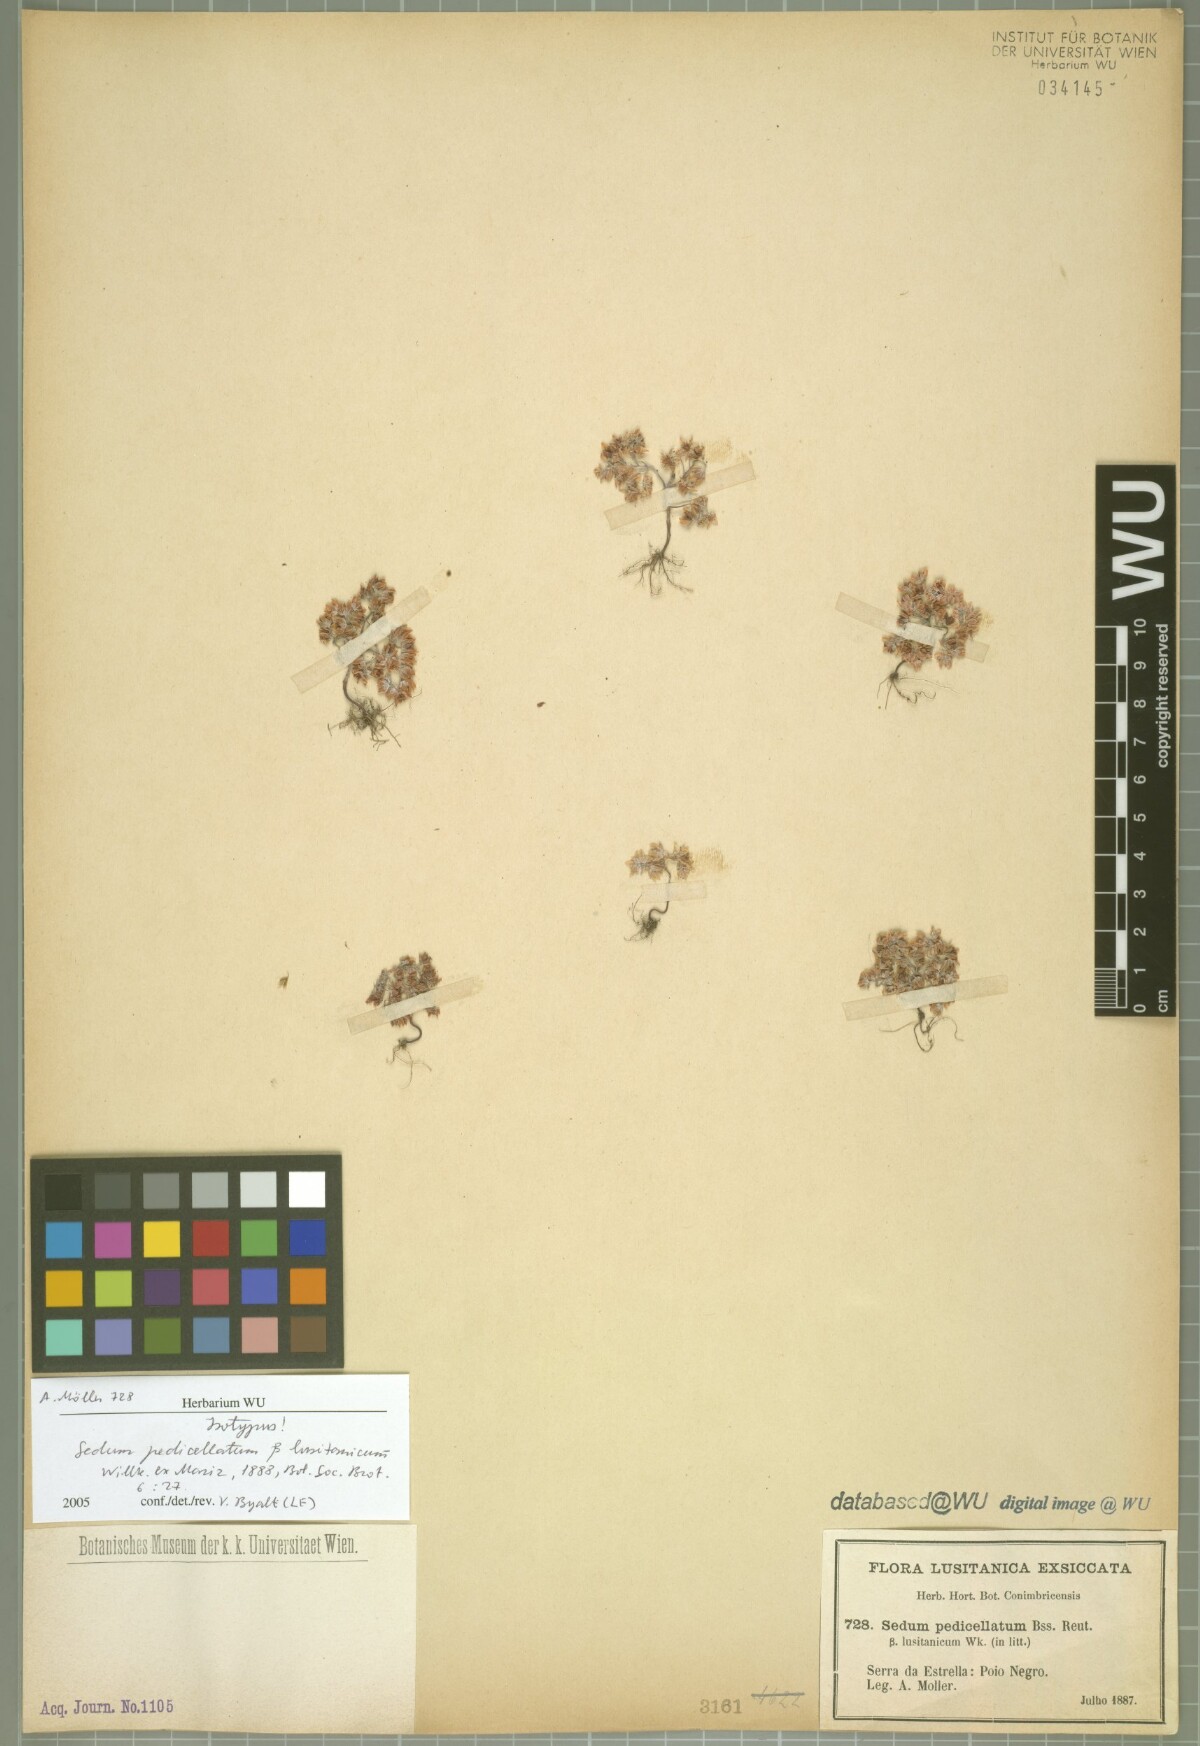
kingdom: Plantae
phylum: Tracheophyta
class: Magnoliopsida
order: Saxifragales
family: Crassulaceae
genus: Sedum
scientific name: Sedum pedicellatum
